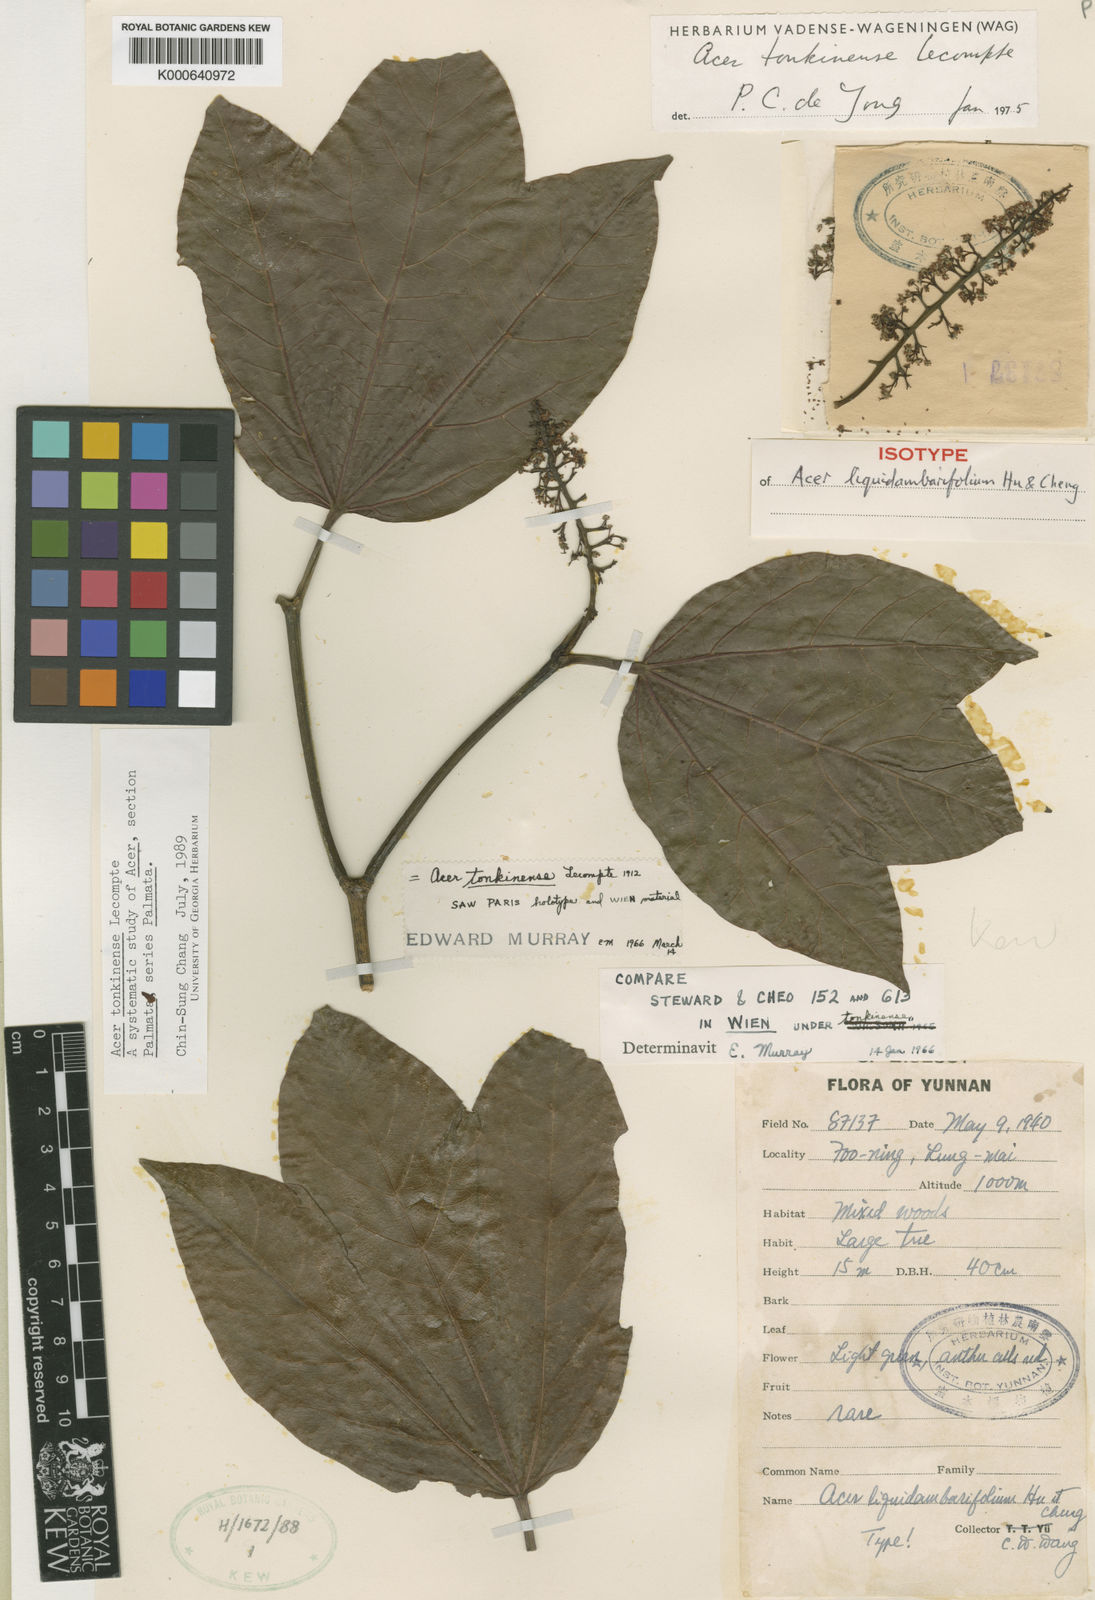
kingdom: Plantae
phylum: Tracheophyta
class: Magnoliopsida
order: Sapindales
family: Sapindaceae
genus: Acer
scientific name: Acer tonkinense
